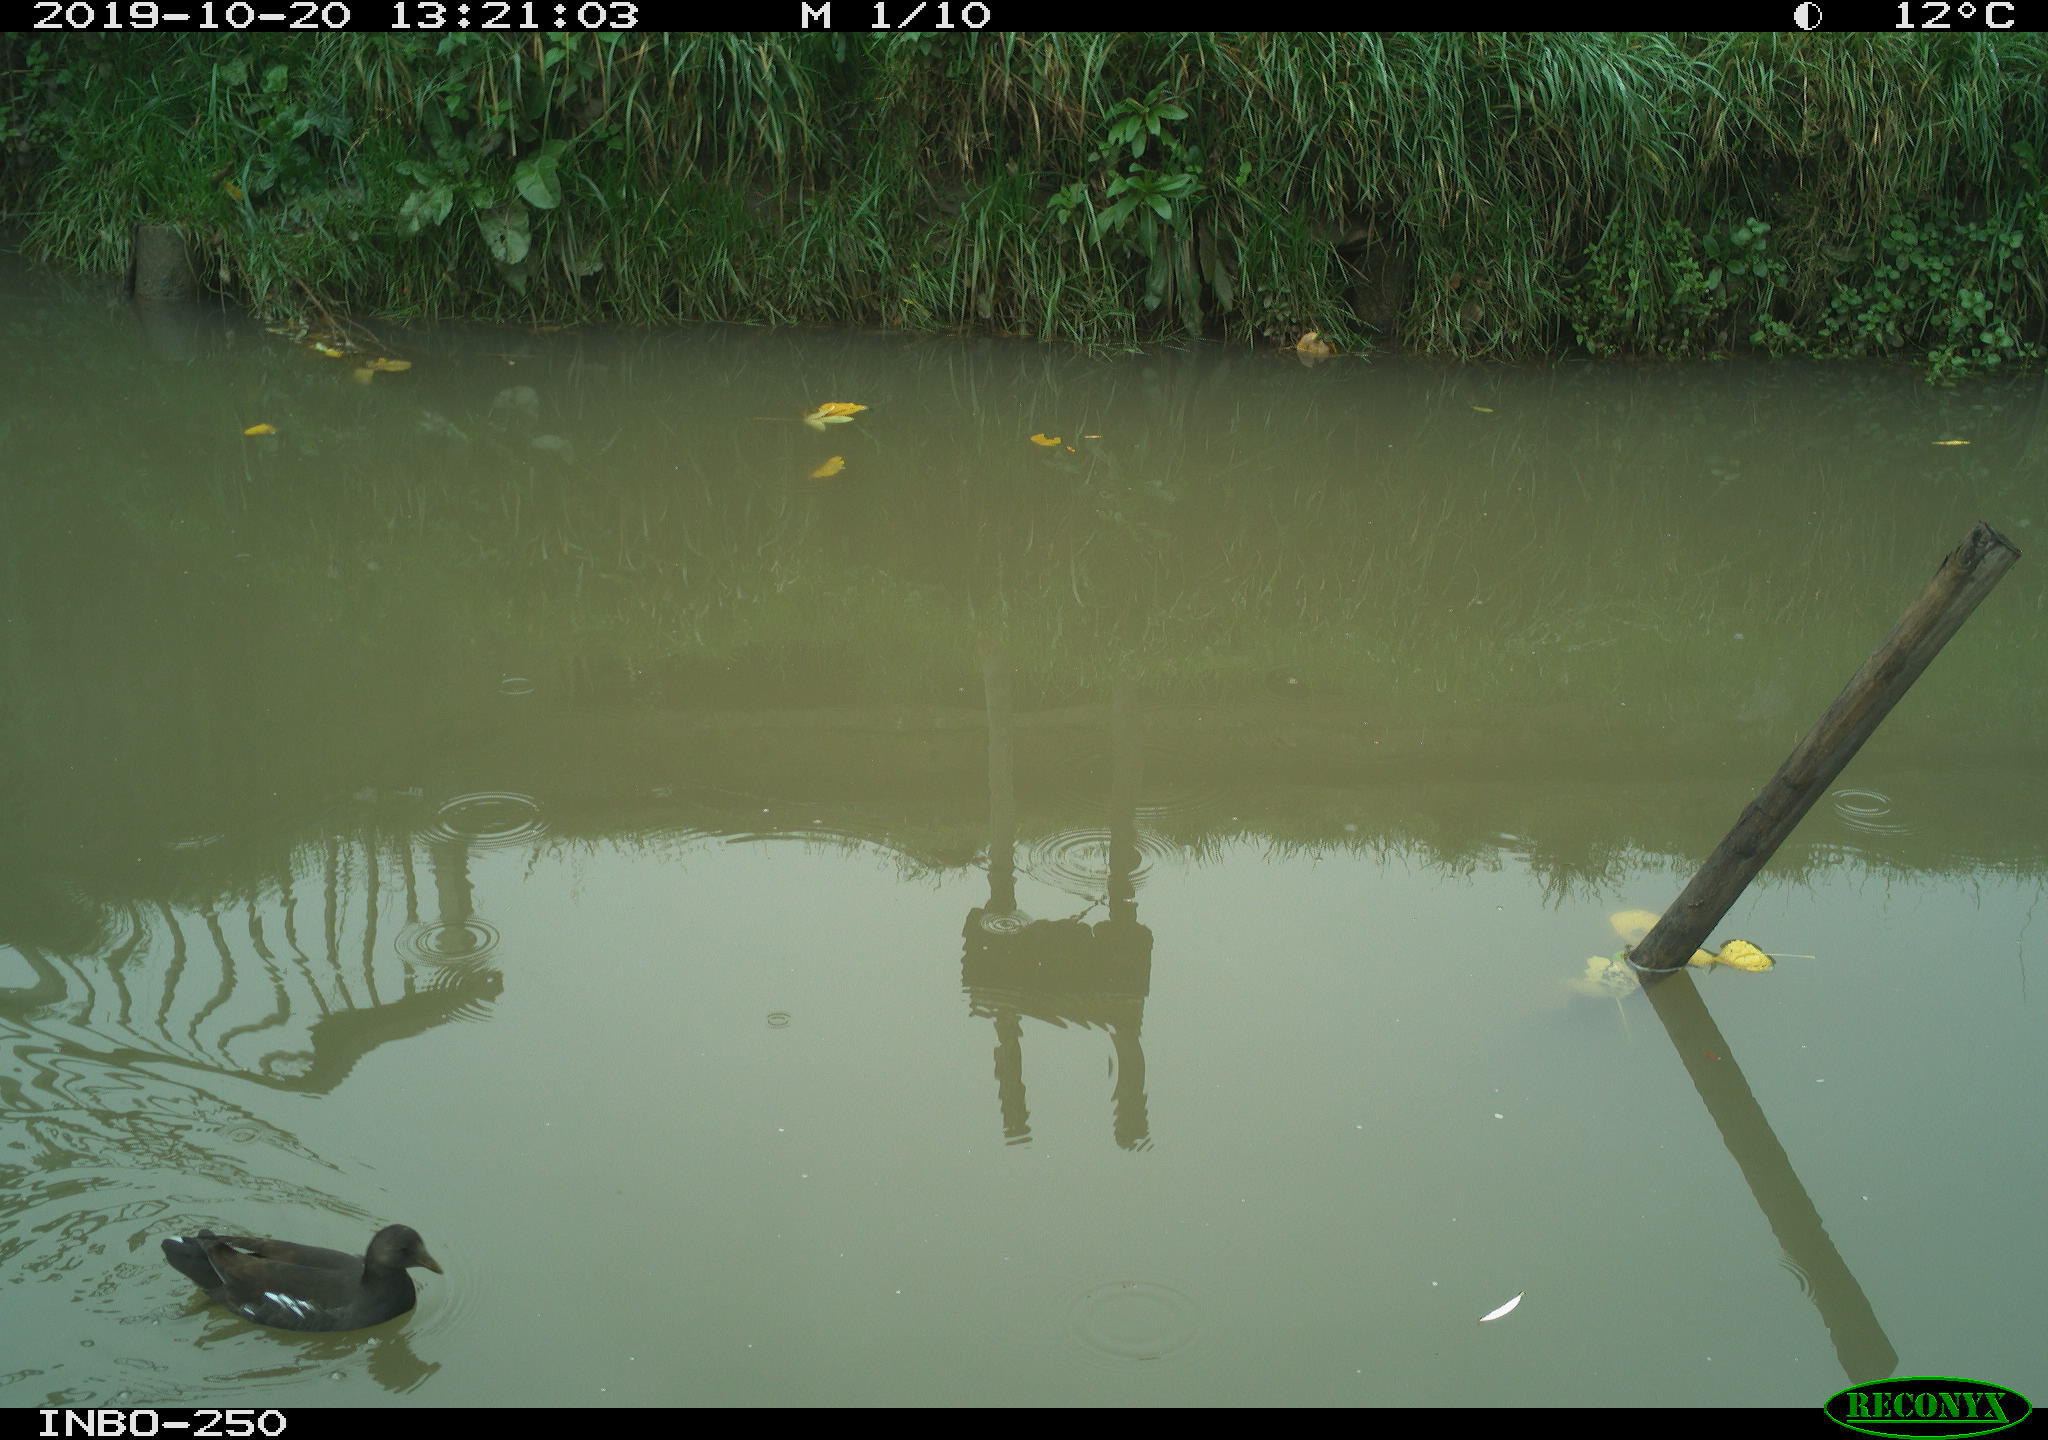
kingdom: Animalia
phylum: Chordata
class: Aves
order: Gruiformes
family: Rallidae
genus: Gallinula
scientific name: Gallinula chloropus
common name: Common moorhen
